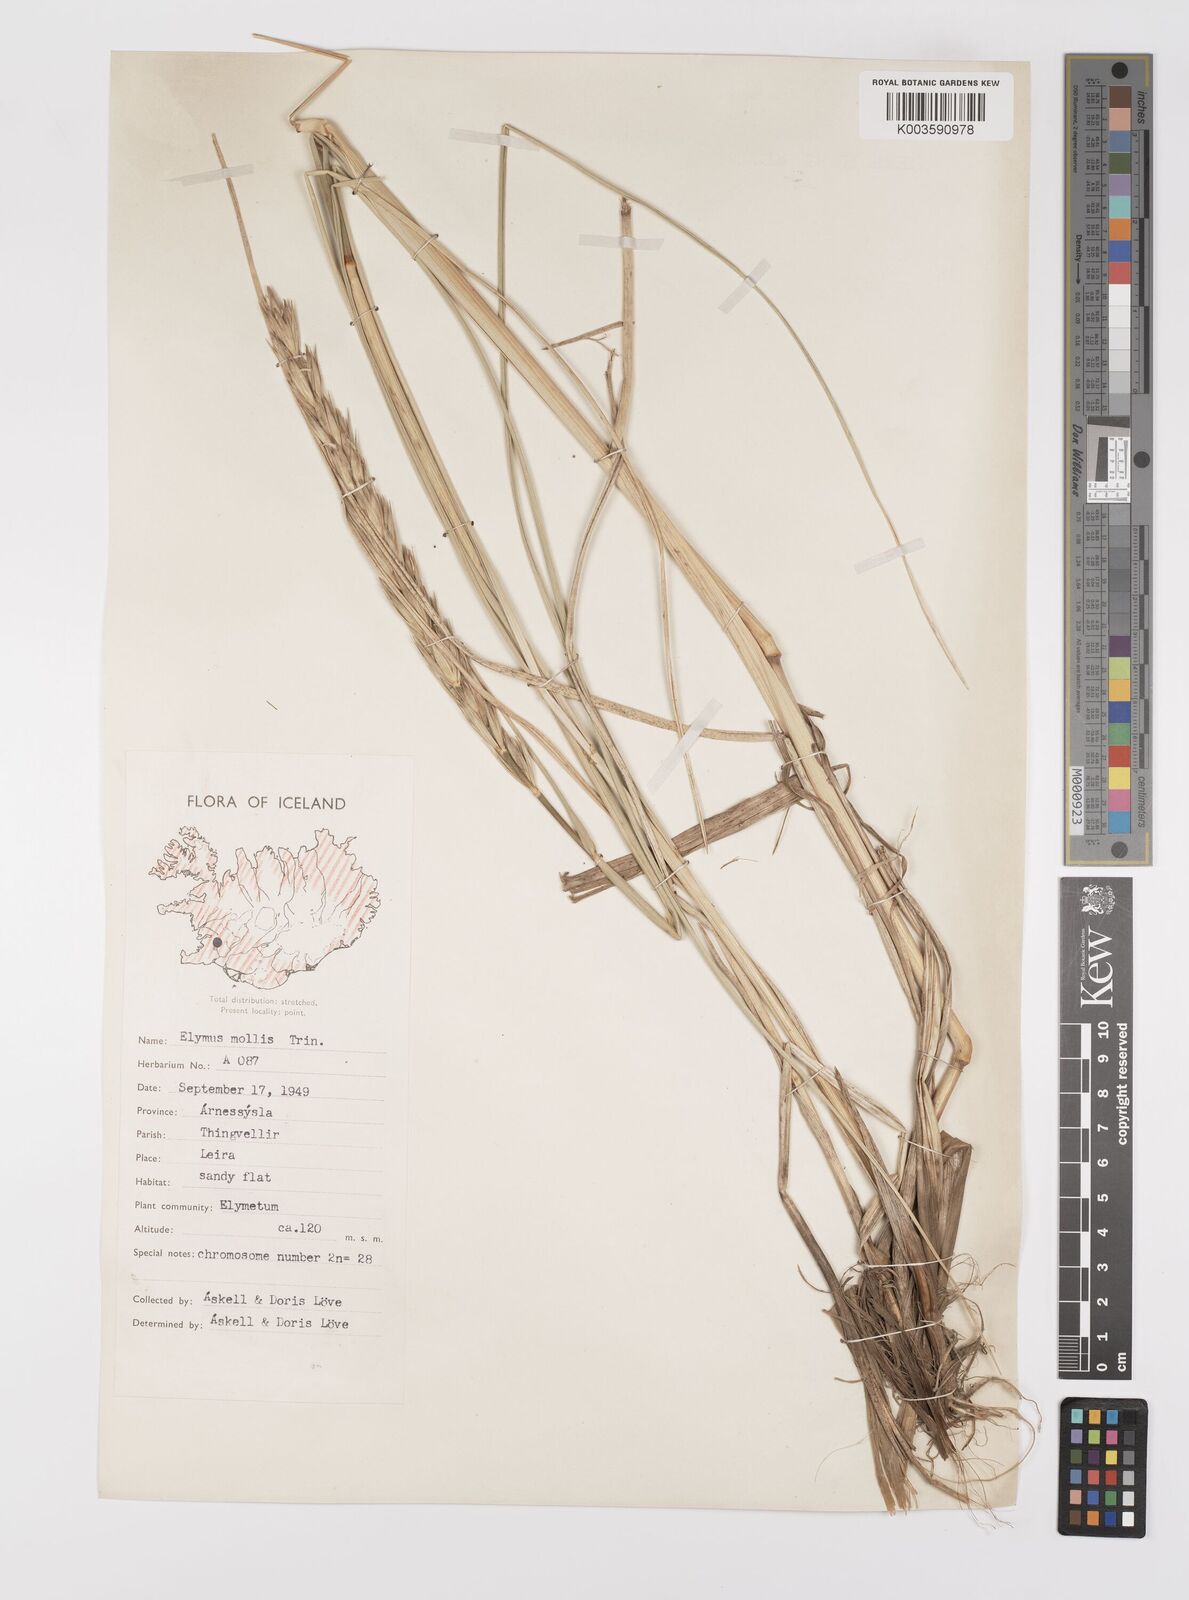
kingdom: Plantae
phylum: Tracheophyta
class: Liliopsida
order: Poales
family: Poaceae
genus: Leymus
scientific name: Leymus arenarius
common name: Lyme-grass
